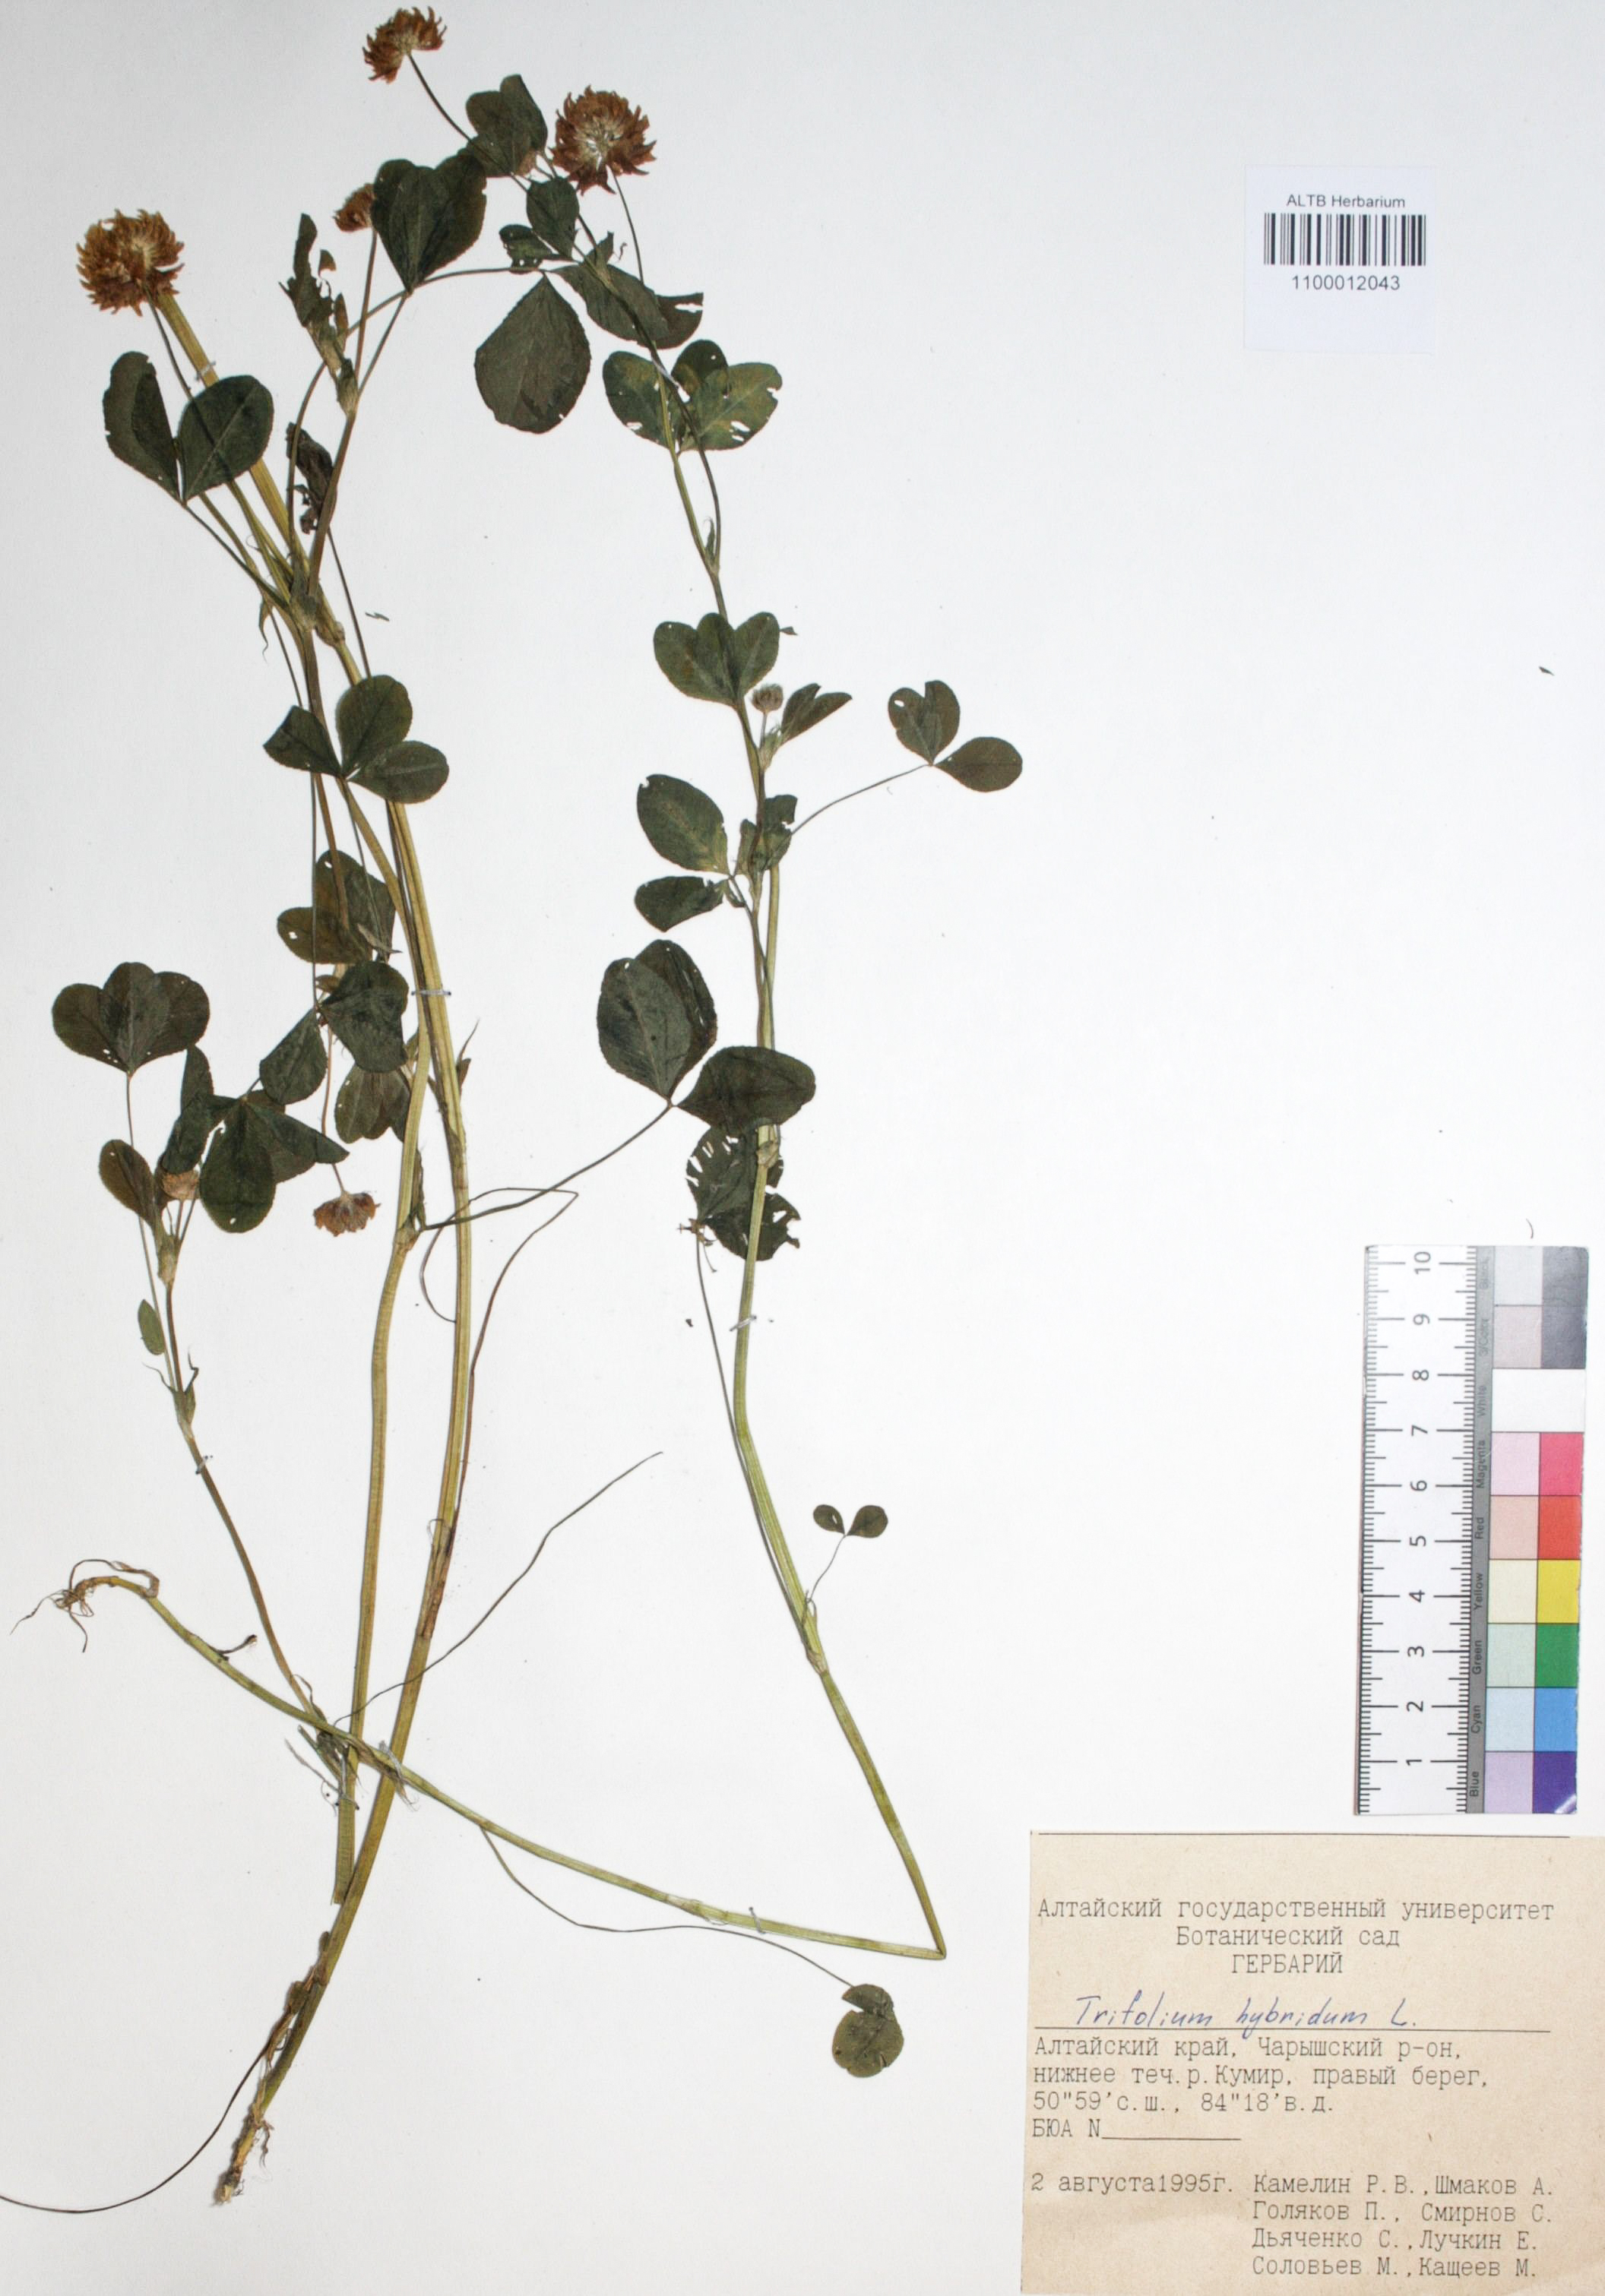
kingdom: Plantae
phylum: Tracheophyta
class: Magnoliopsida
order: Fabales
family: Fabaceae
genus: Trifolium
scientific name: Trifolium hybridum
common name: Alsike clover
